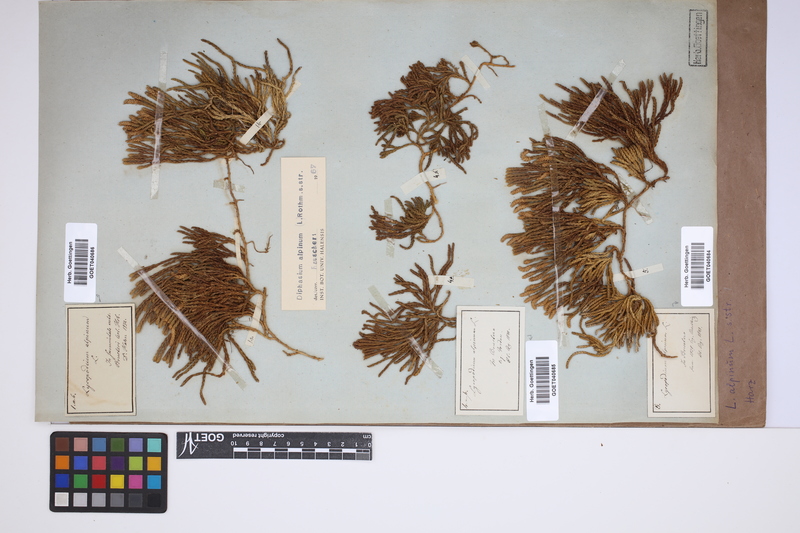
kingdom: Plantae
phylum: Tracheophyta
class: Lycopodiopsida
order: Lycopodiales
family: Lycopodiaceae
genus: Diphasiastrum
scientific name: Diphasiastrum alpinum
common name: Alpine clubmoss
